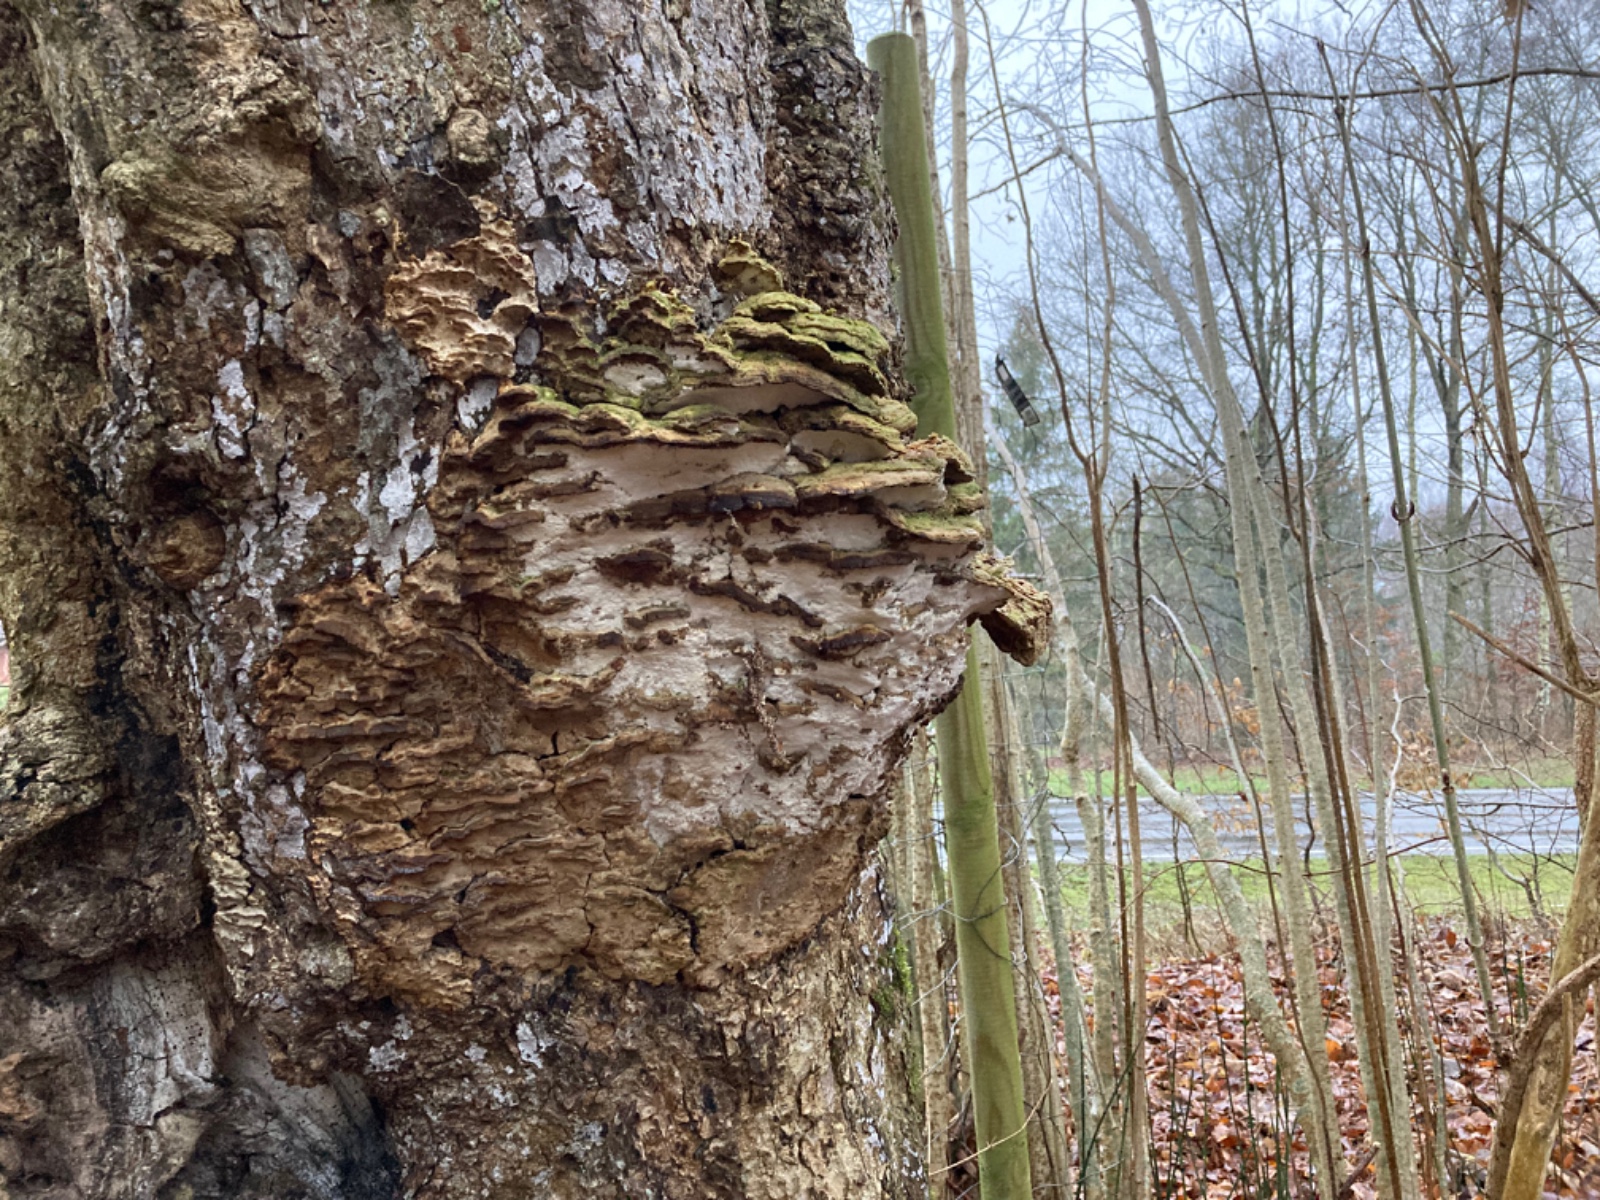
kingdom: Fungi
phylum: Basidiomycota
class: Agaricomycetes
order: Hymenochaetales
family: Oxyporaceae
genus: Oxyporus
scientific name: Oxyporus populinus
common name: sammenvokset trylleporesvamp
